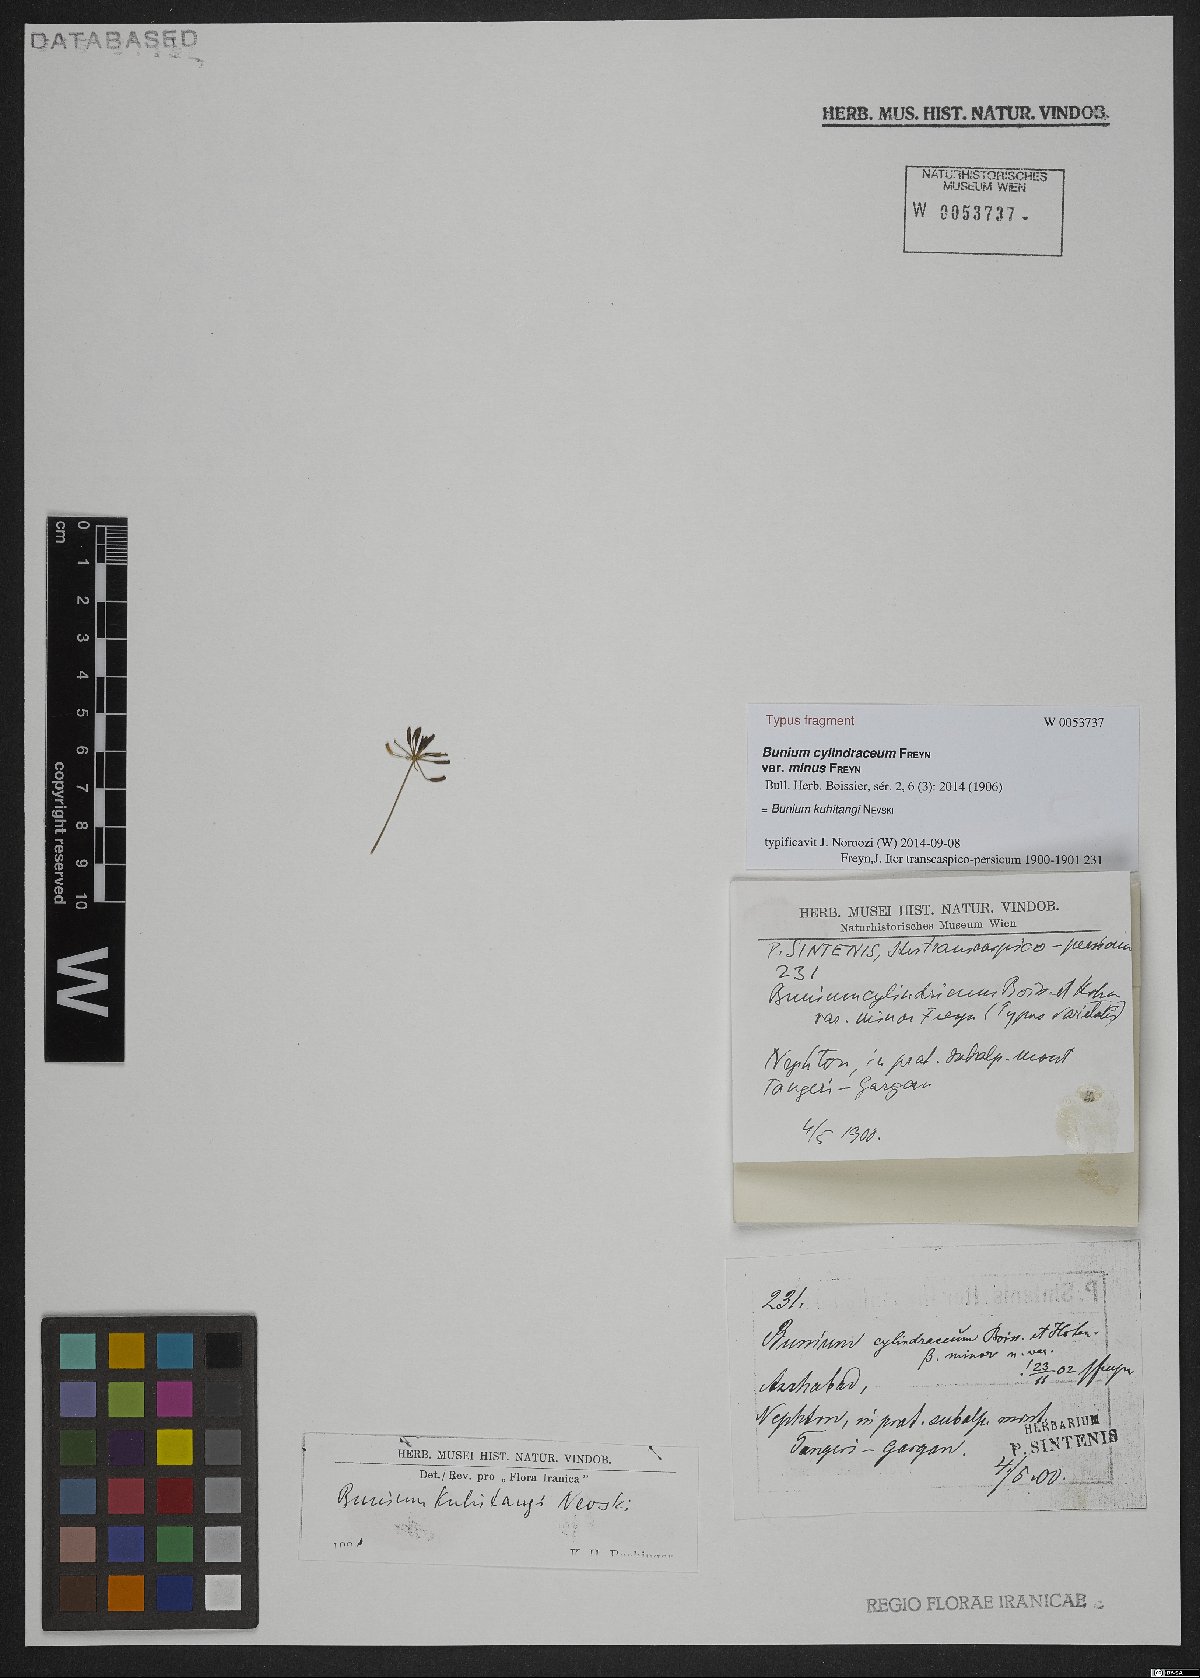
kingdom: Plantae
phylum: Tracheophyta
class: Magnoliopsida
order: Apiales
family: Apiaceae
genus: Elwendia
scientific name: Elwendia kuhitangi
